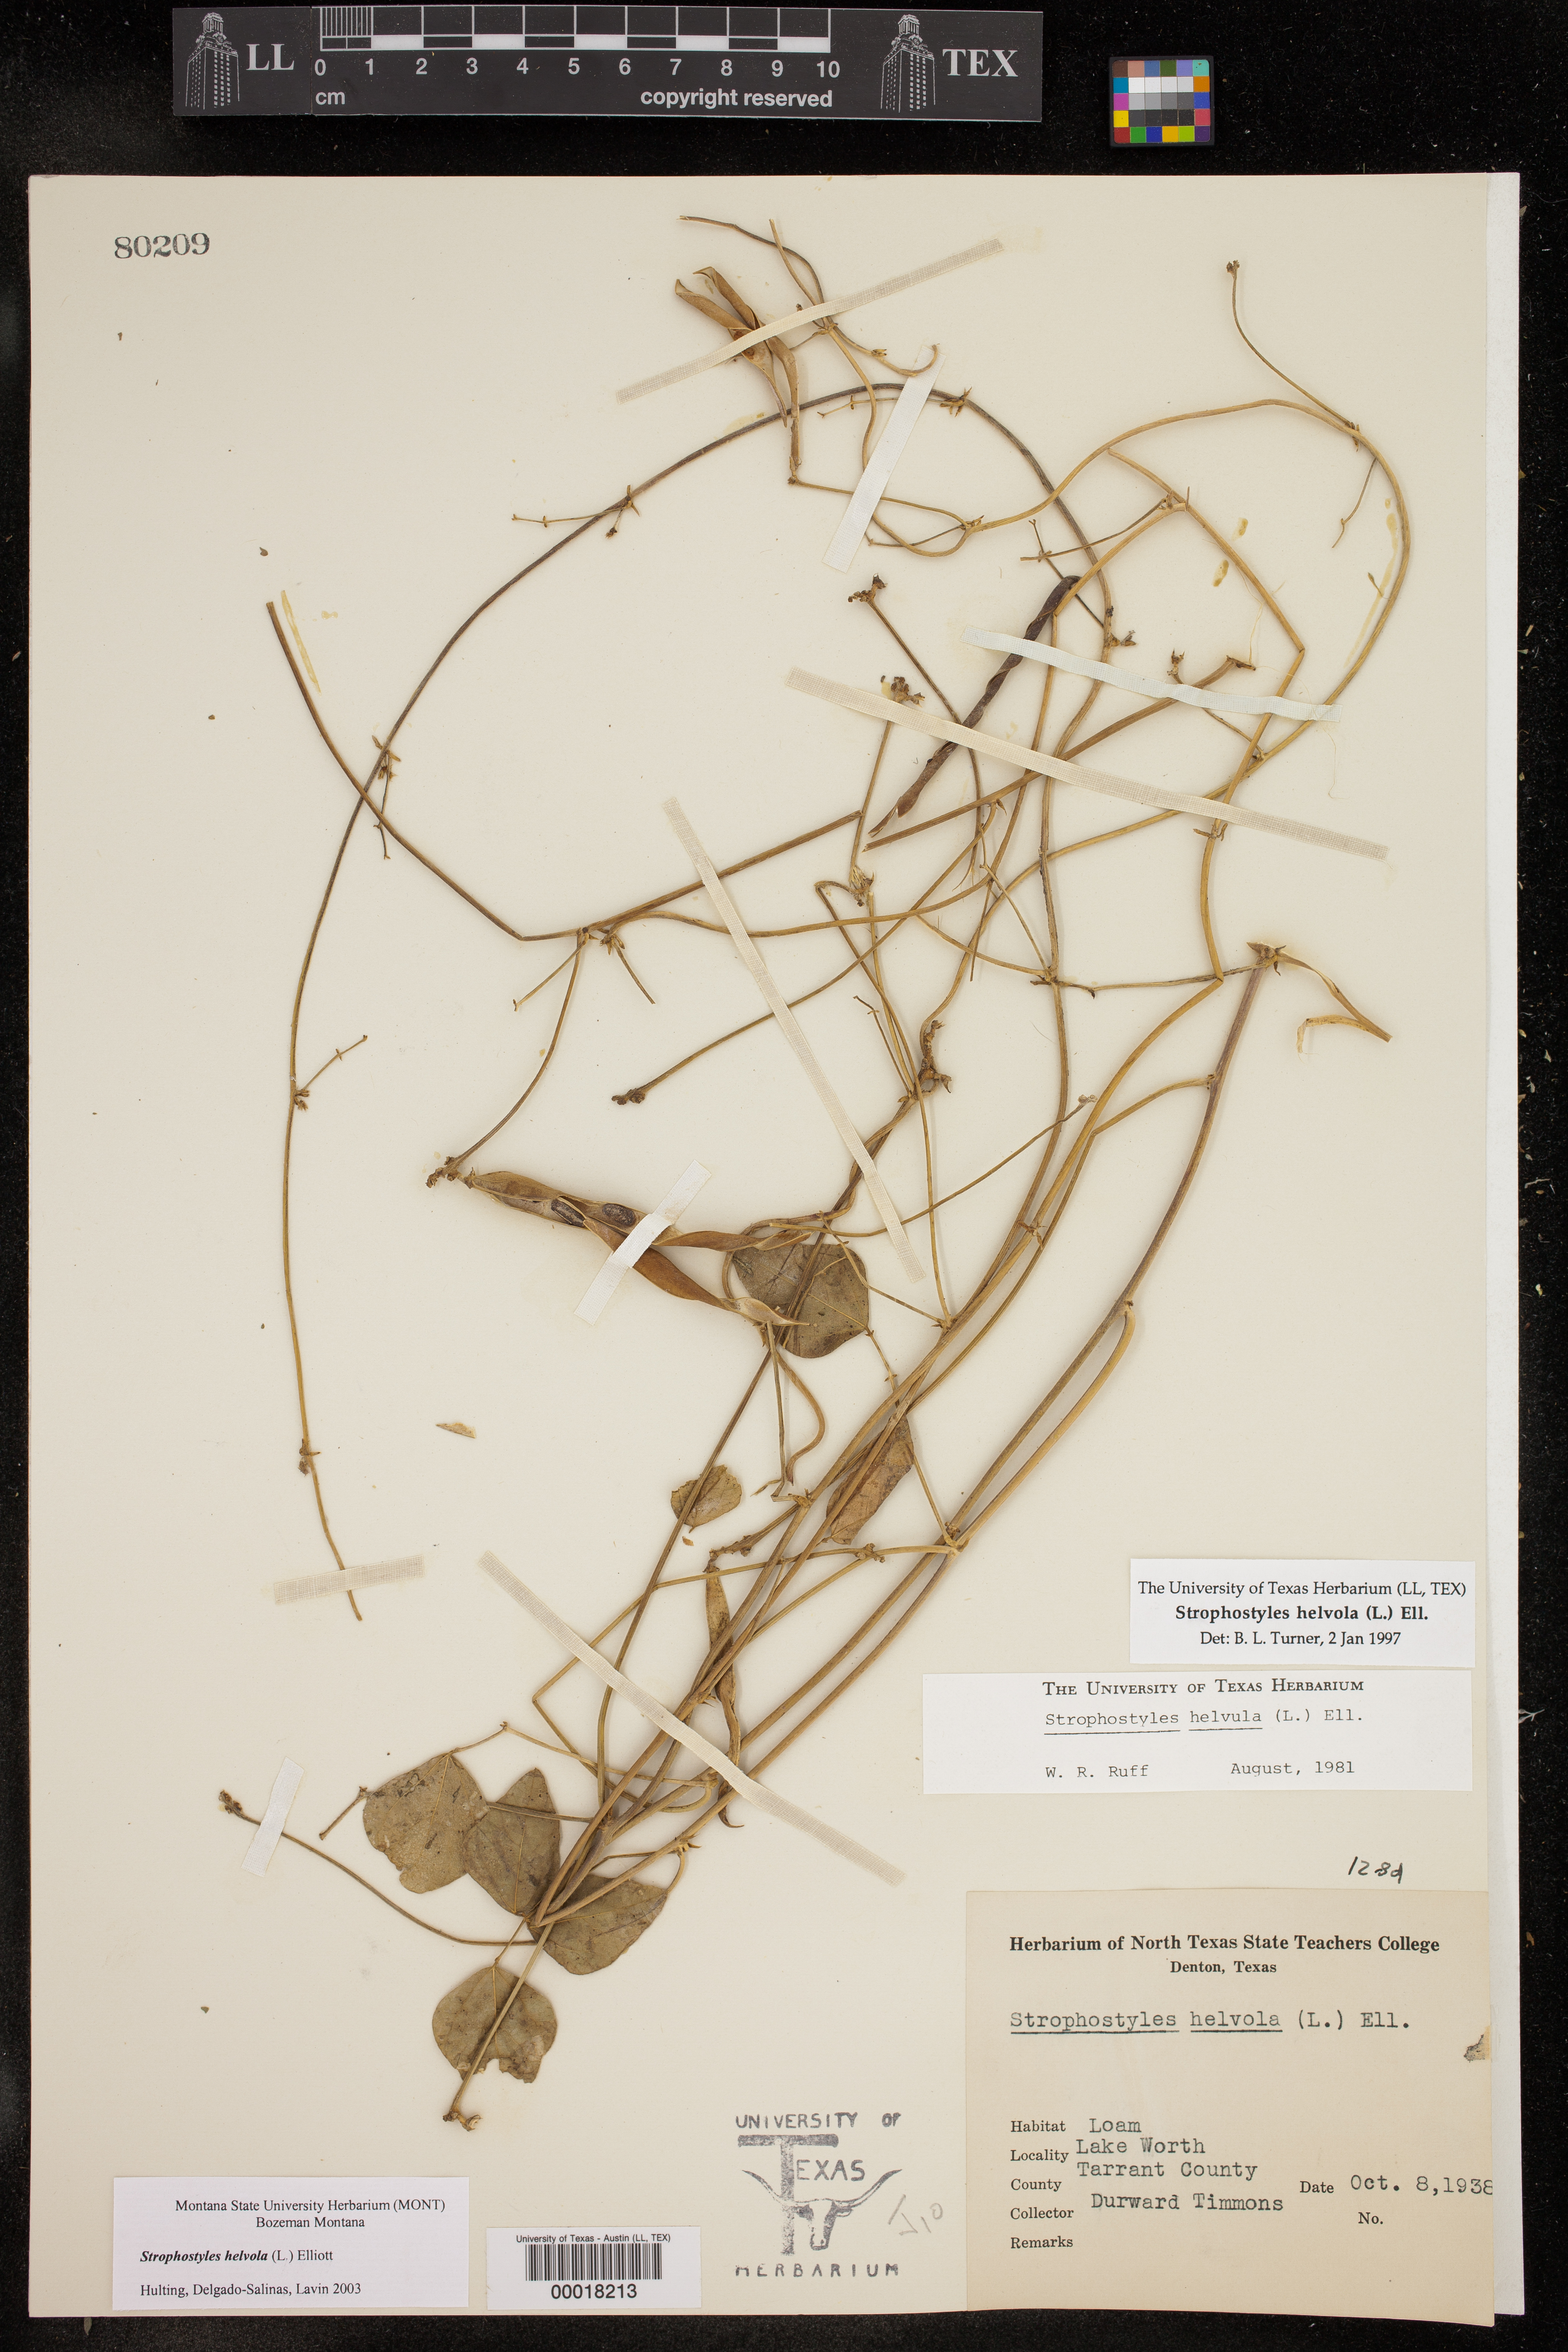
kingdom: Plantae
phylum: Tracheophyta
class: Magnoliopsida
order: Fabales
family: Fabaceae
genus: Strophostyles
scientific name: Strophostyles helvola
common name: Trailing wild bean
